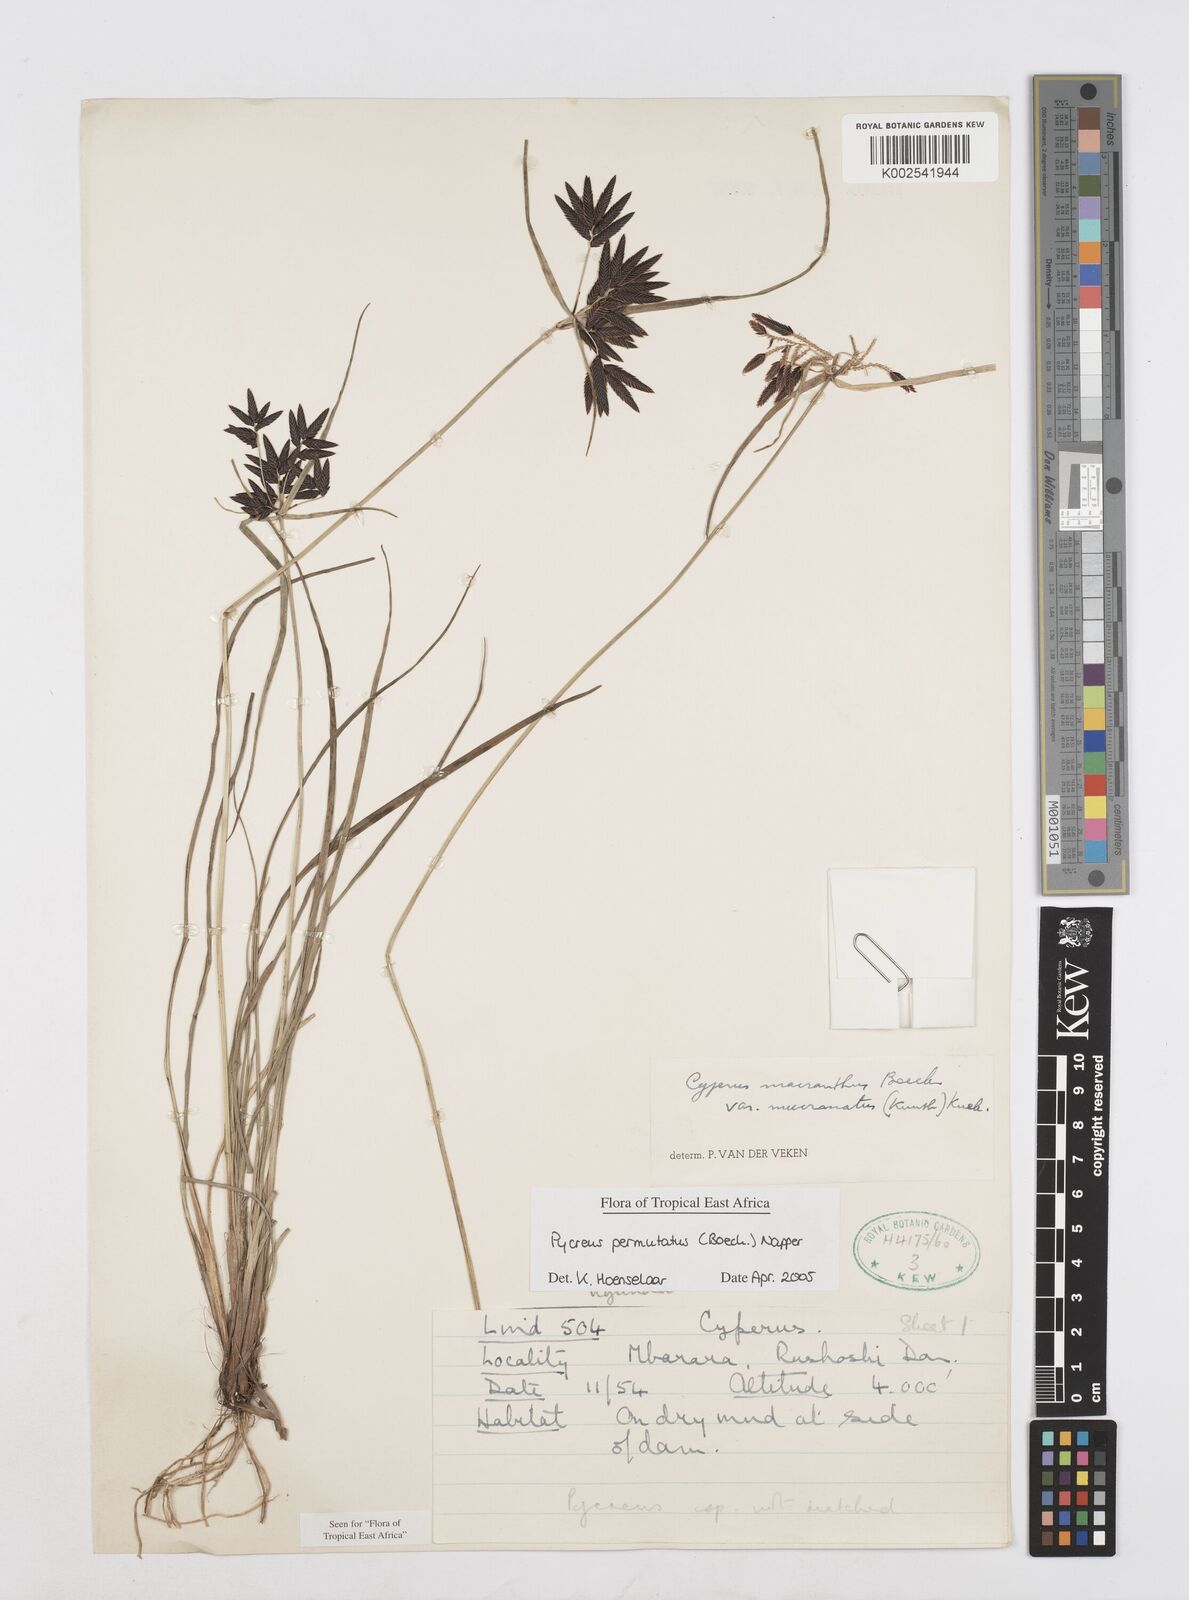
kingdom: Plantae
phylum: Tracheophyta
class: Liliopsida
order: Poales
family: Cyperaceae
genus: Cyperus
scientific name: Cyperus nigricans
